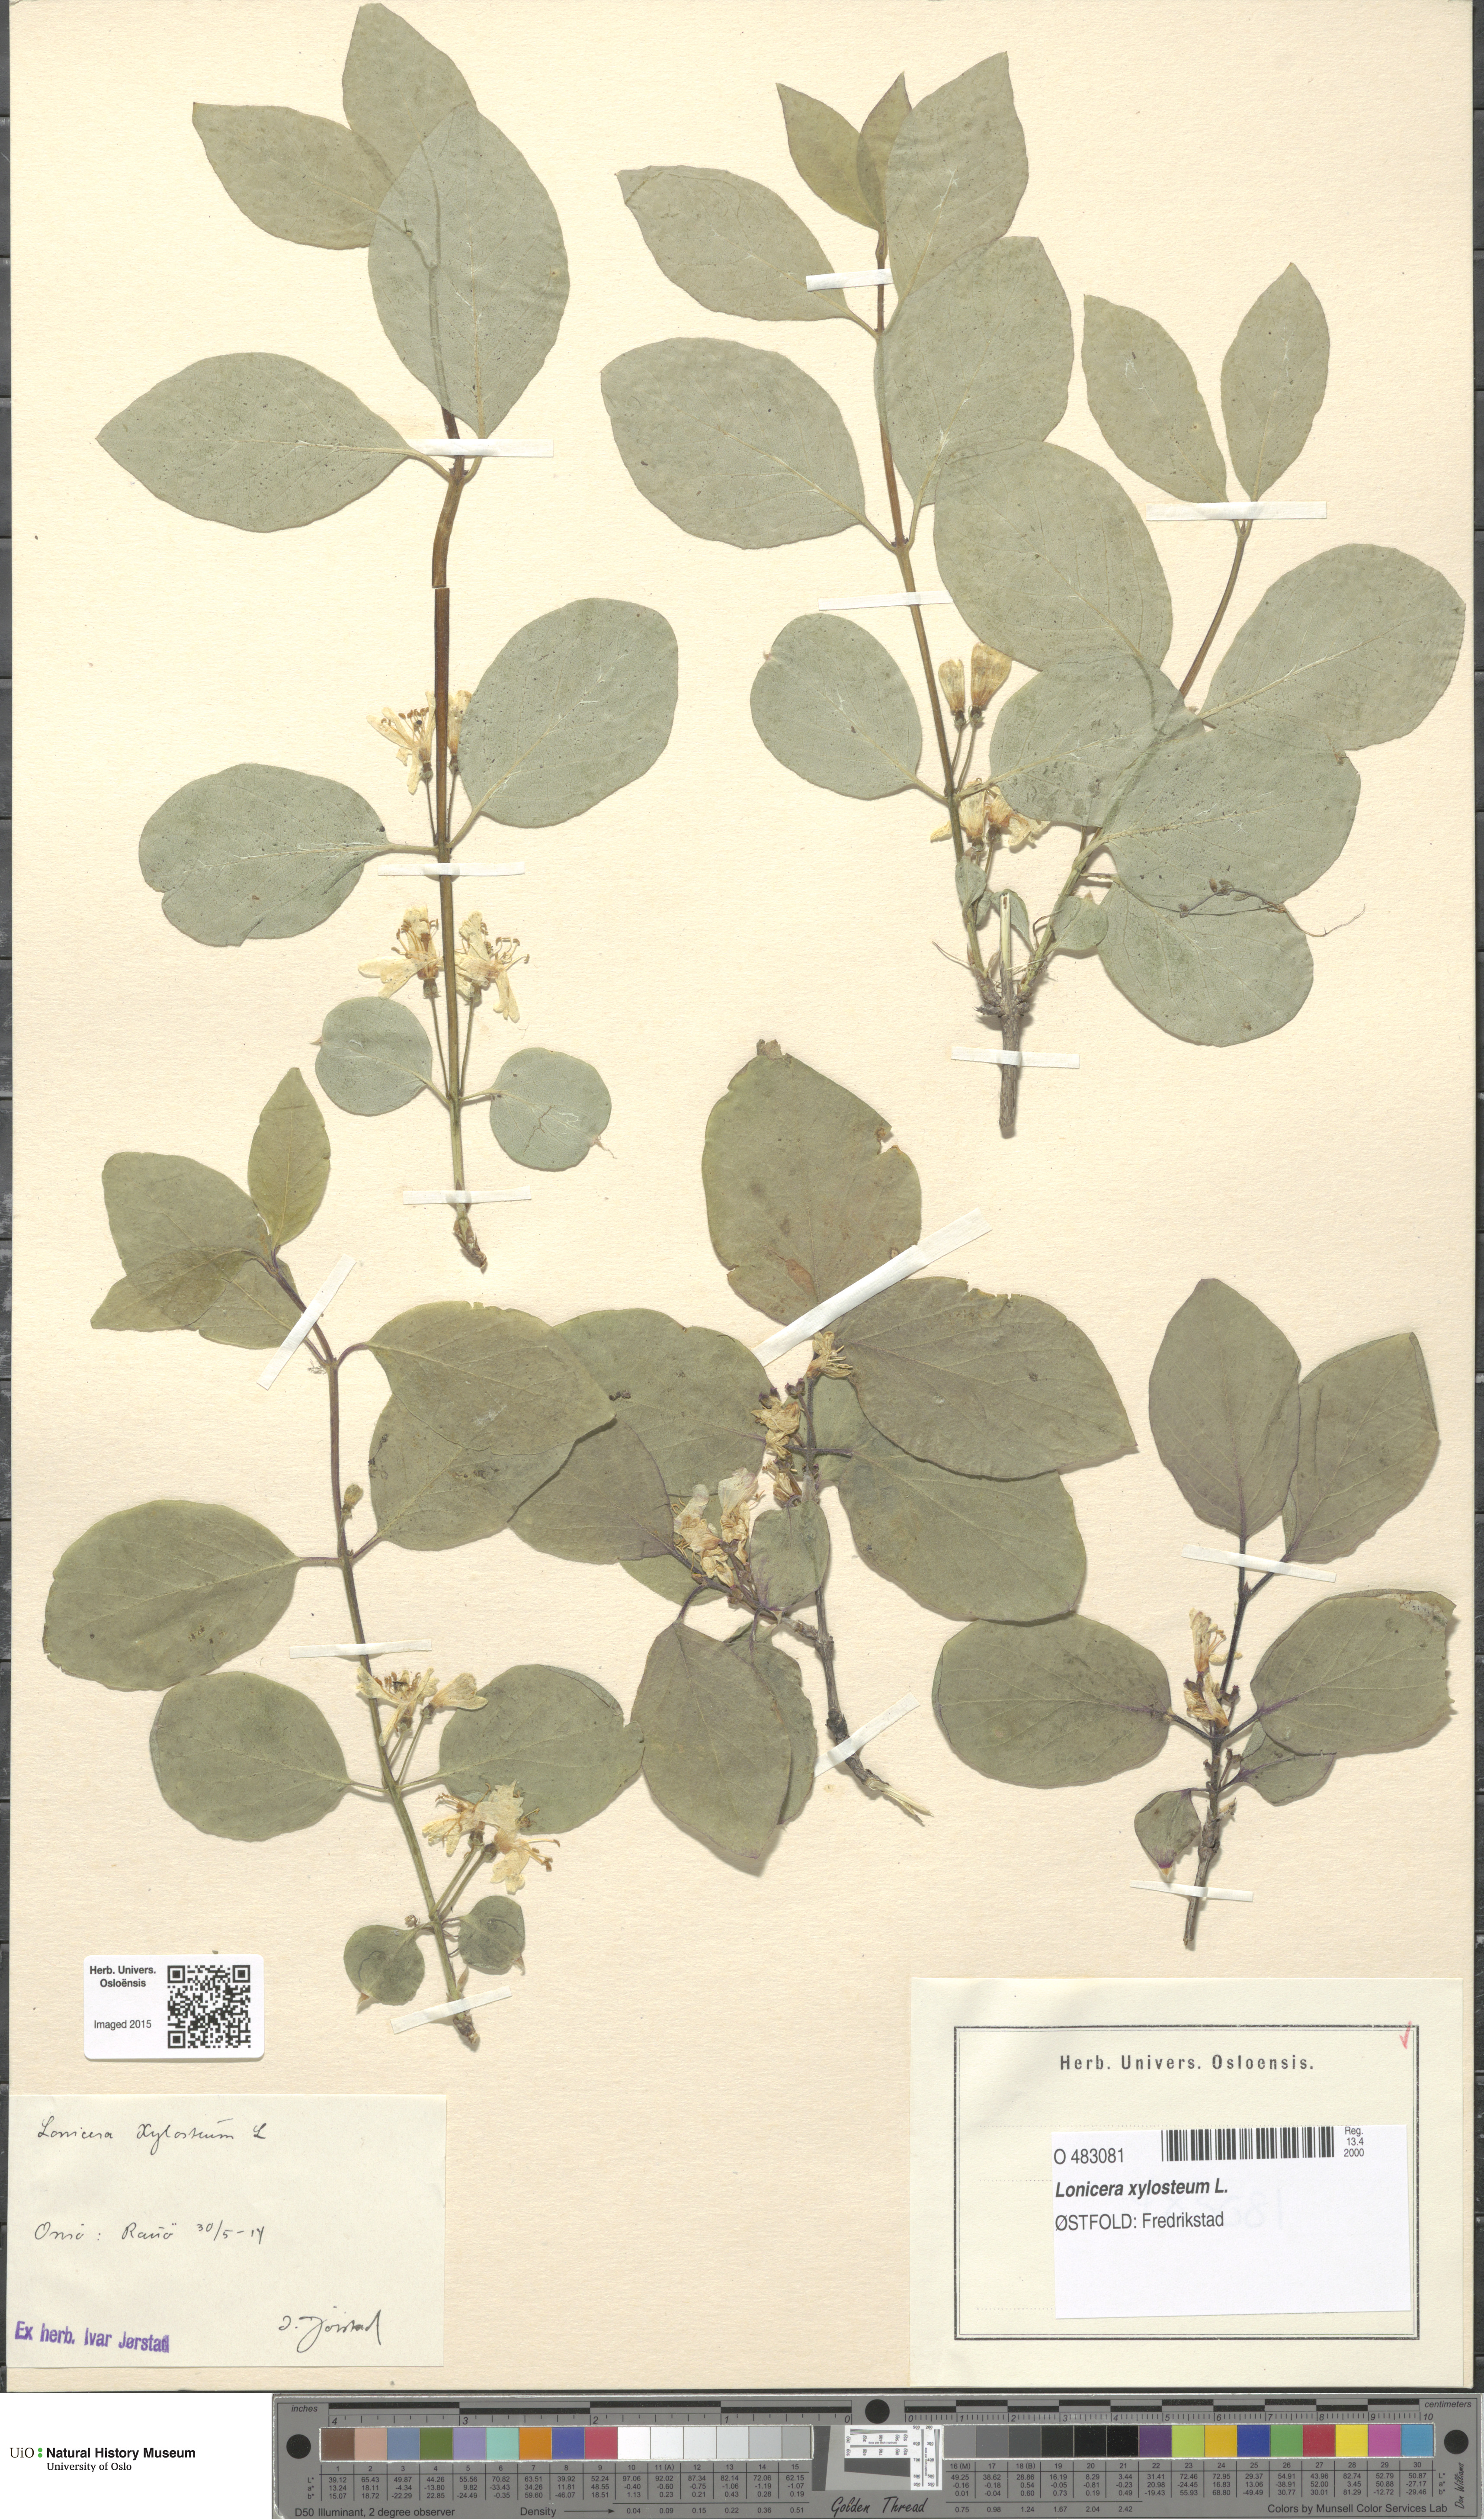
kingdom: Plantae
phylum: Tracheophyta
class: Magnoliopsida
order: Dipsacales
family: Caprifoliaceae
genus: Lonicera
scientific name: Lonicera xylosteum
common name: Fly honeysuckle
